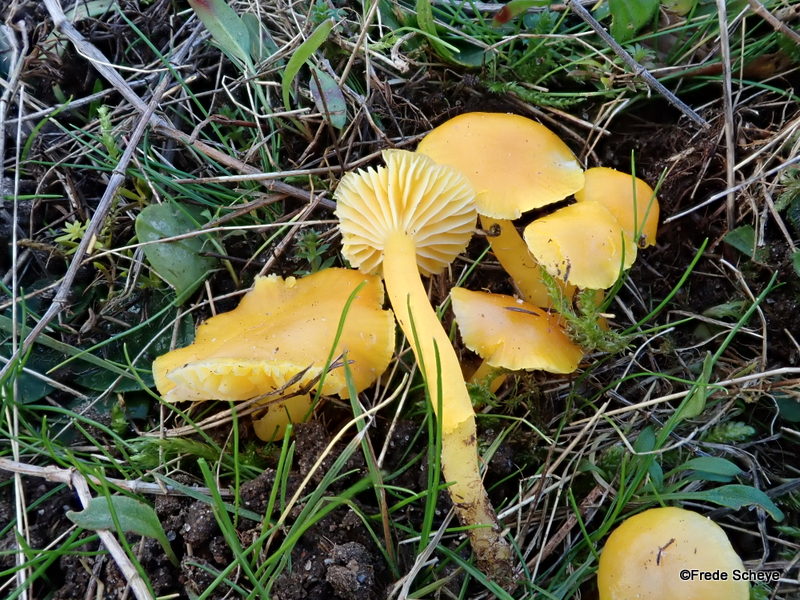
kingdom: Fungi
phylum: Basidiomycota
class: Agaricomycetes
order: Agaricales
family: Hygrophoraceae
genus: Hygrocybe
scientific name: Hygrocybe ceracea
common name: voksgul vokshat
